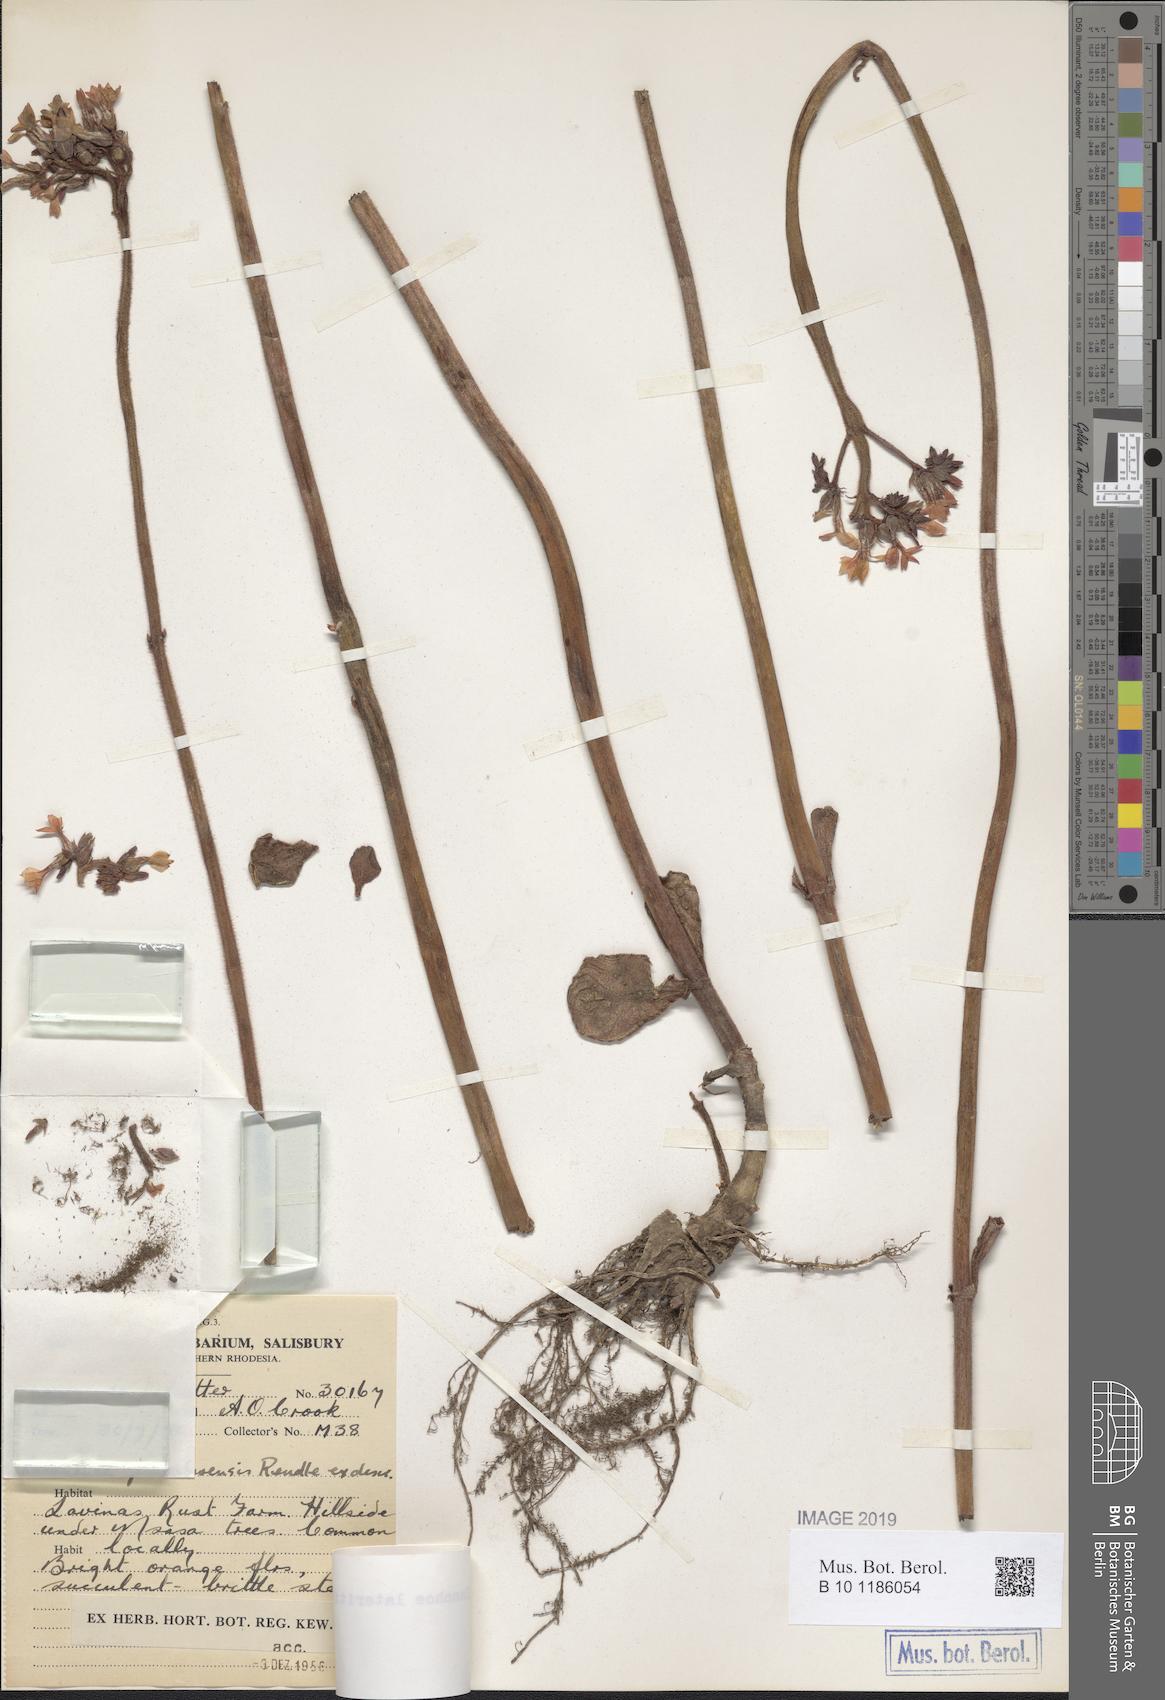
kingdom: Plantae
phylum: Tracheophyta
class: Magnoliopsida
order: Saxifragales
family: Crassulaceae
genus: Kalanchoe
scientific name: Kalanchoe lateritia
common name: Kalanchoe
